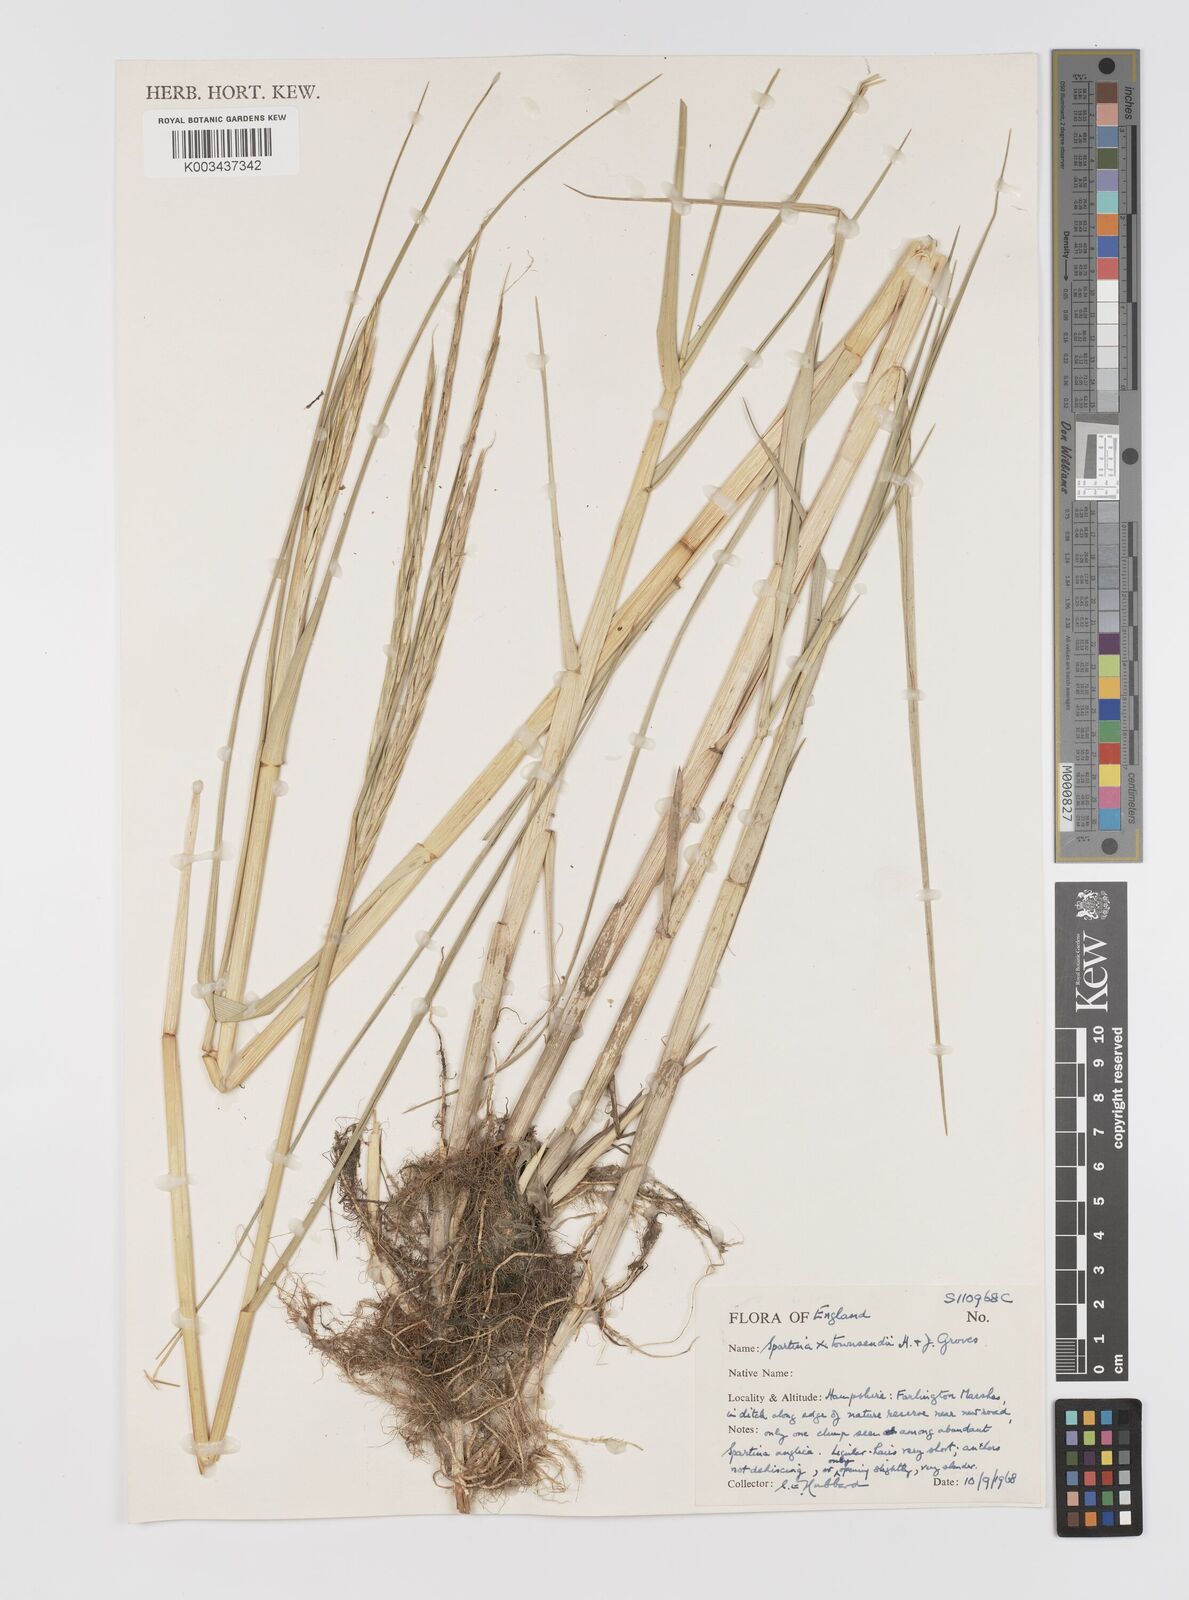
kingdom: Plantae
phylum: Tracheophyta
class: Liliopsida
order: Poales
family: Poaceae
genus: Sporobolus
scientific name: Sporobolus townsendii
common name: Townsend's cordgrass
